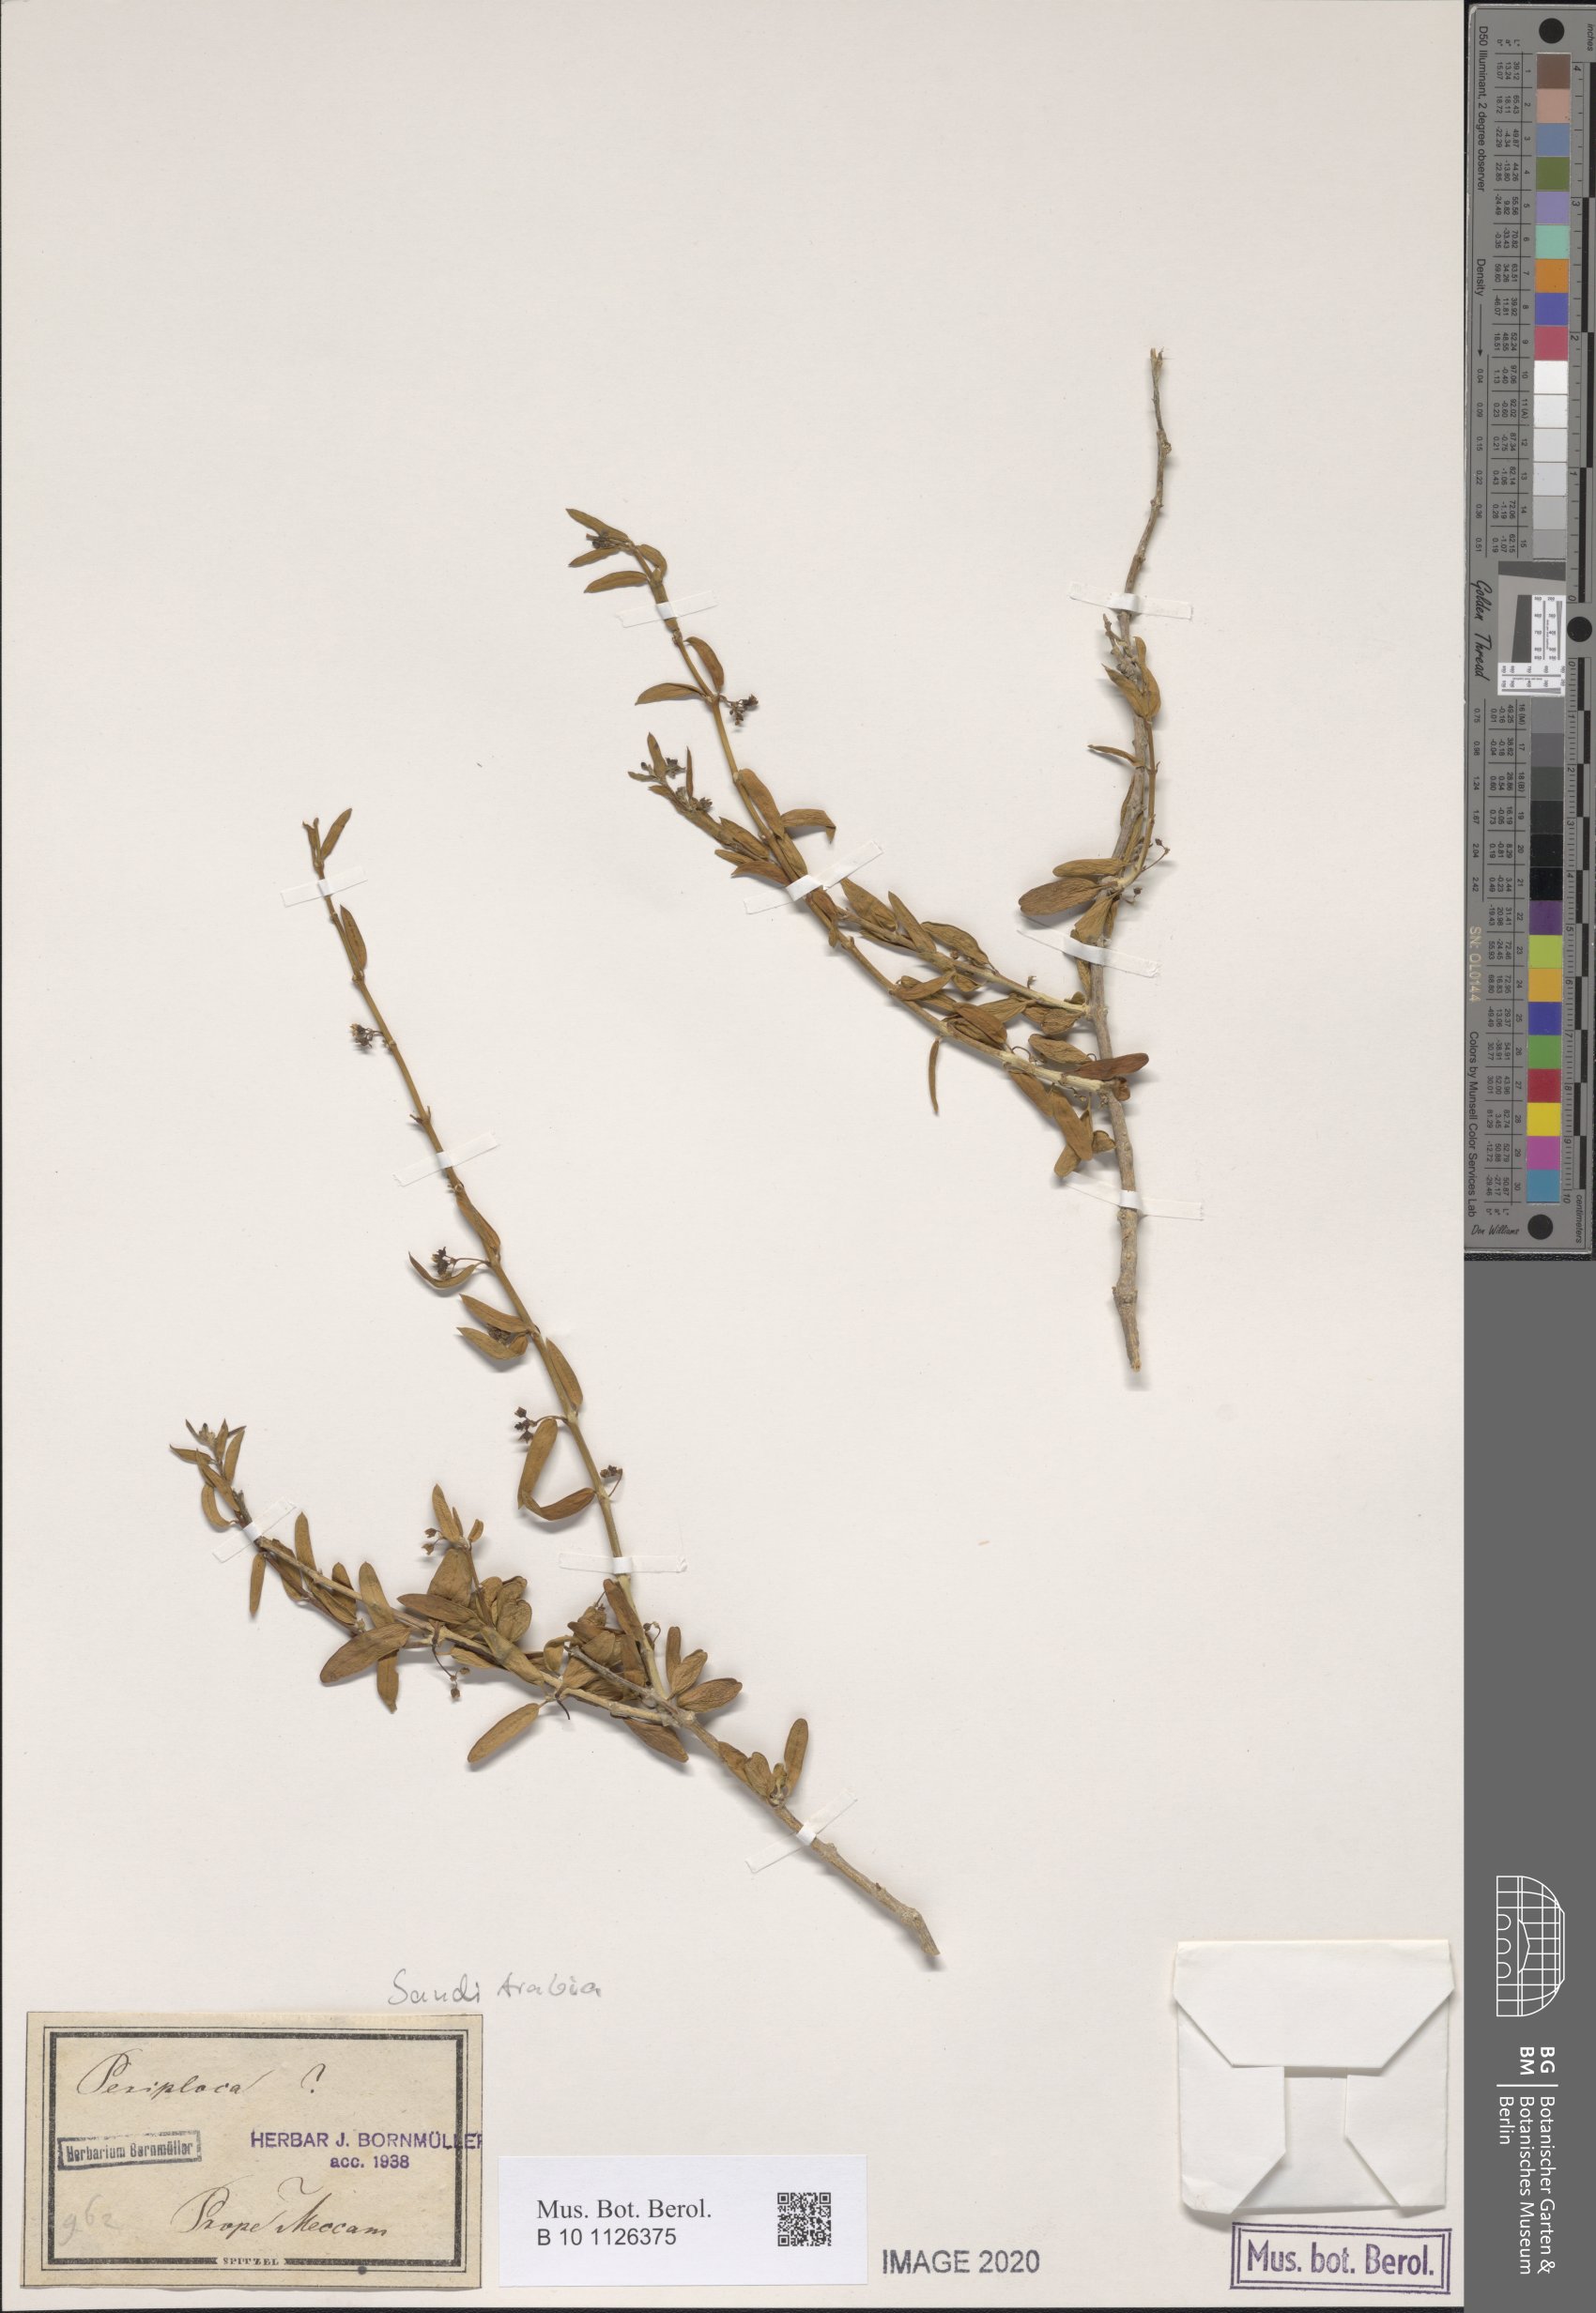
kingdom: Plantae
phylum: Tracheophyta
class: Magnoliopsida
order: Gentianales
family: Apocynaceae
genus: Vincetoxicum
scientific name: Vincetoxicum fruticulosum
